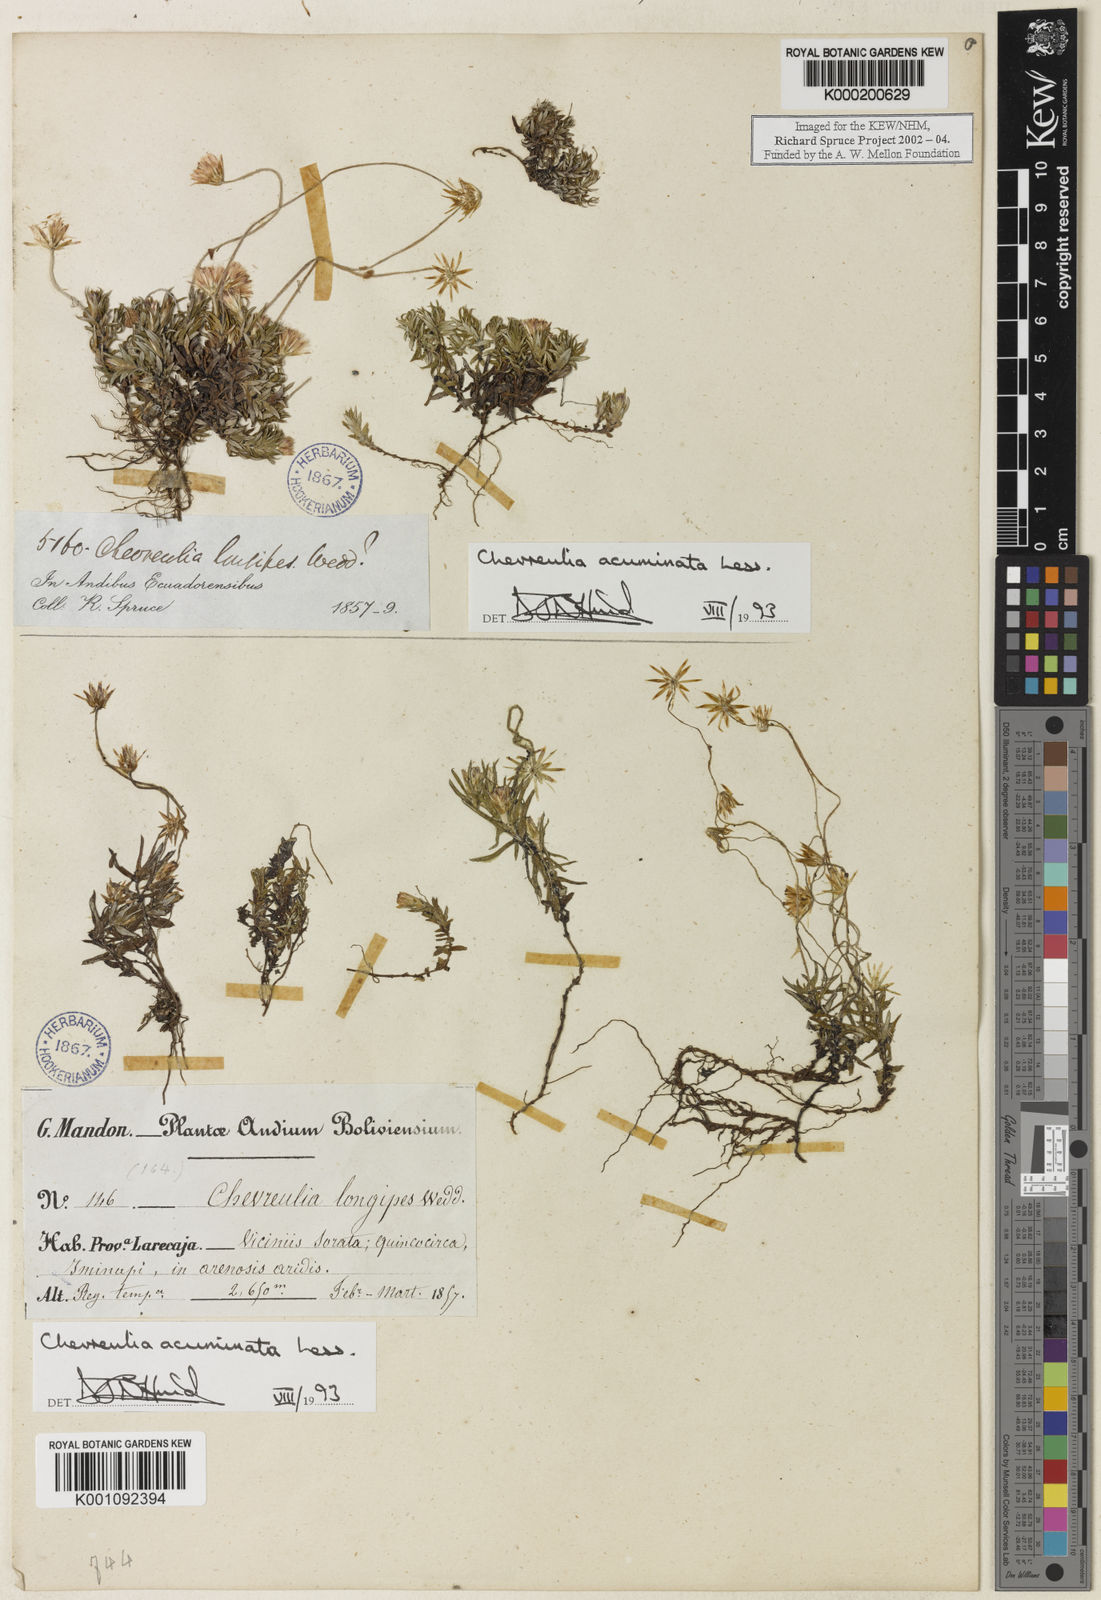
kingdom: Plantae
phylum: Tracheophyta
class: Magnoliopsida
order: Asterales
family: Asteraceae
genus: Chevreulia
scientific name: Chevreulia acuminata
